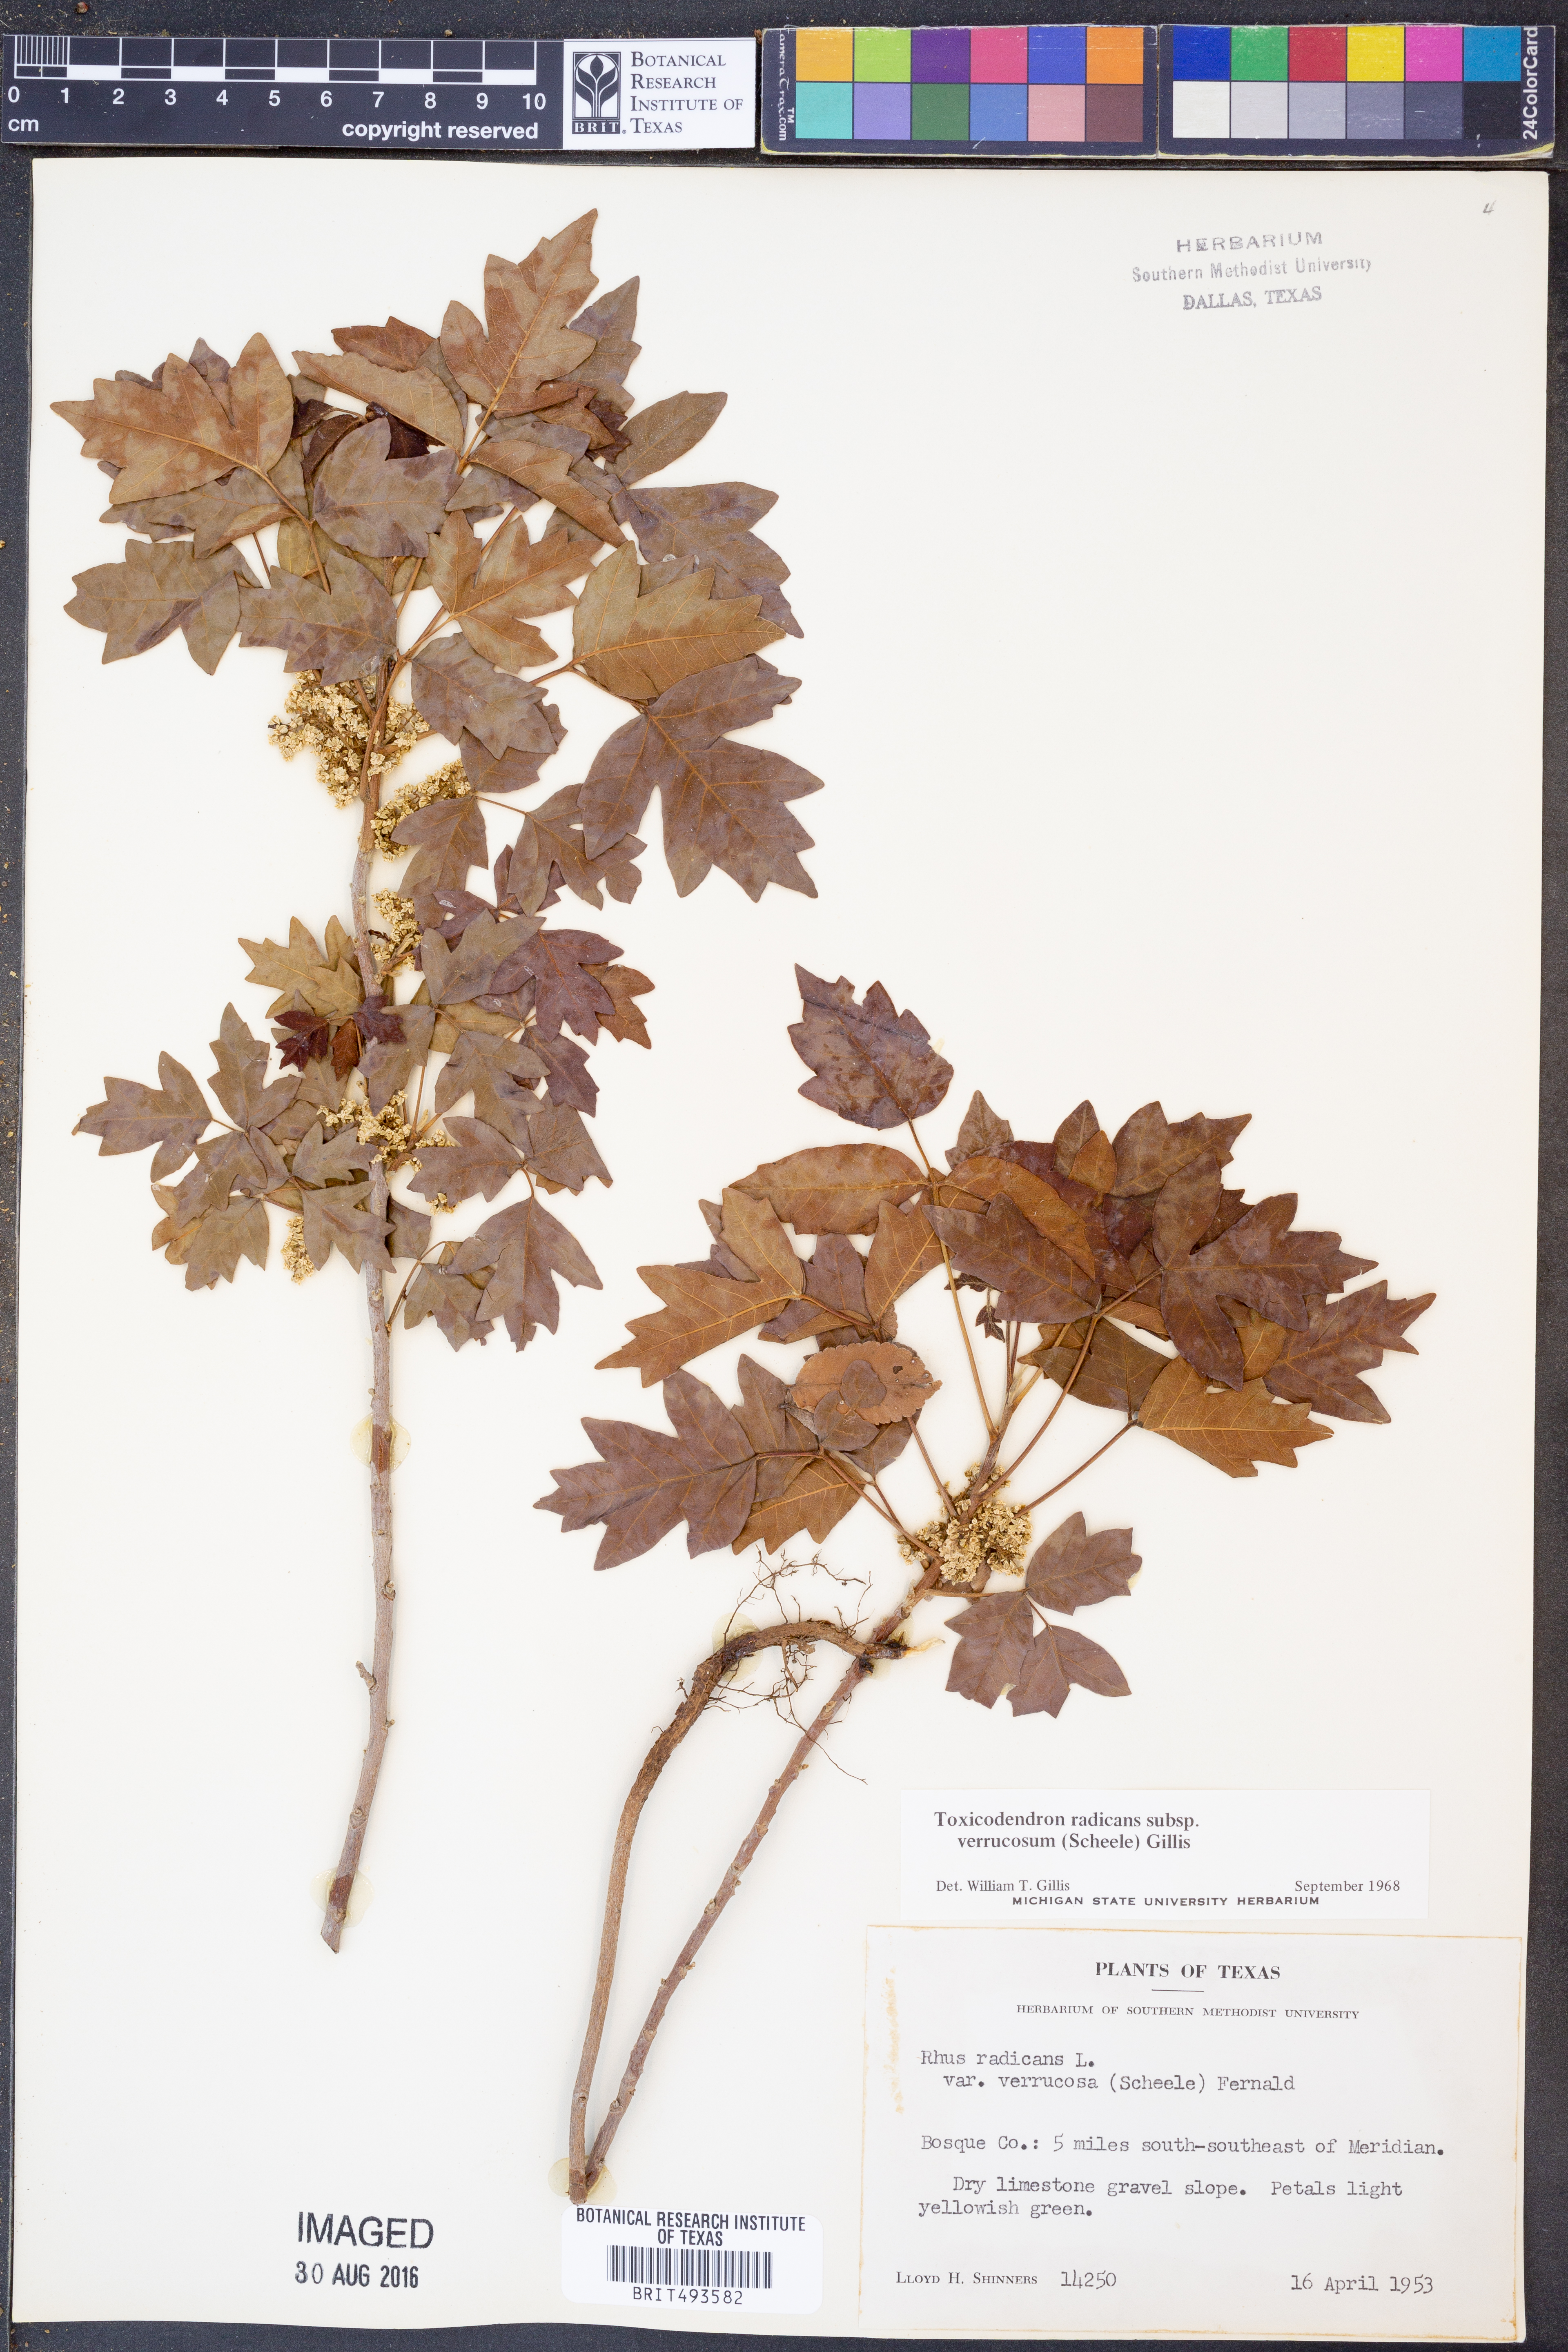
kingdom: Plantae
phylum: Tracheophyta
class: Magnoliopsida
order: Sapindales
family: Anacardiaceae
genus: Toxicodendron
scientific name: Toxicodendron radicans
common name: Poison ivy
